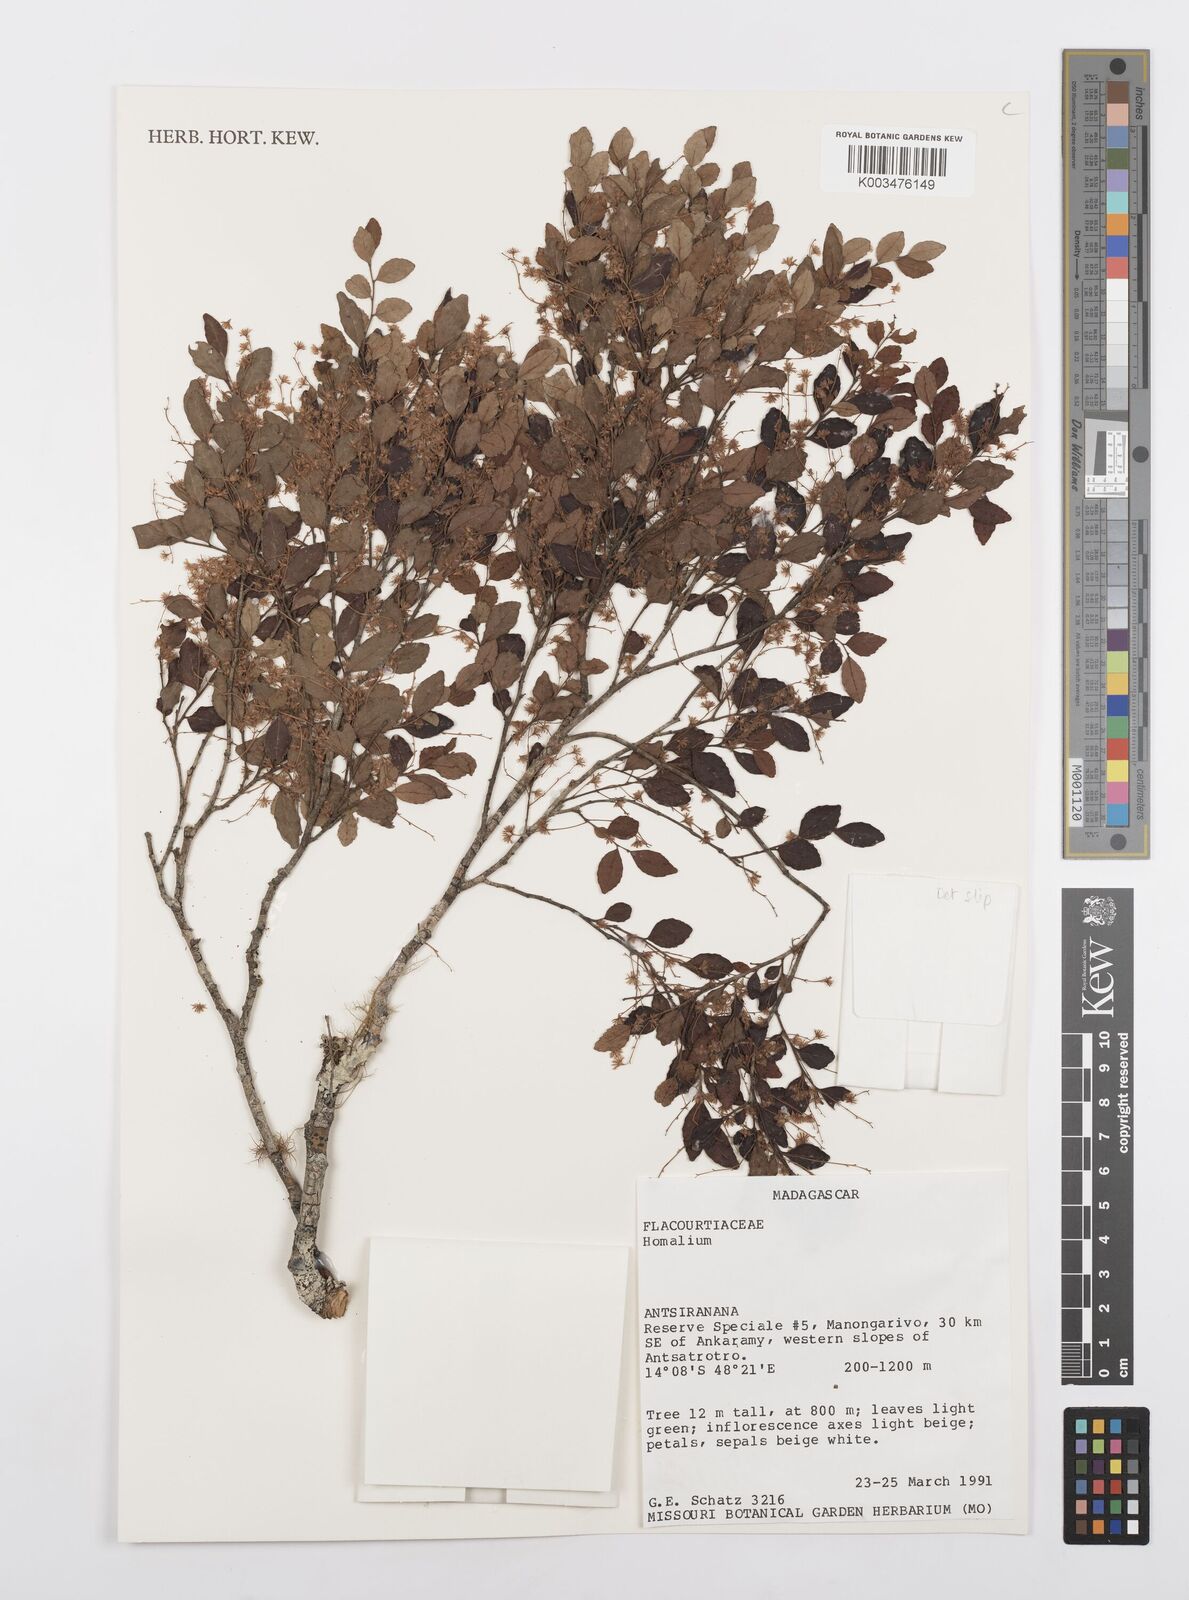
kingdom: Plantae
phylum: Tracheophyta
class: Magnoliopsida
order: Malpighiales
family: Salicaceae
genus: Homalium
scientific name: Homalium
